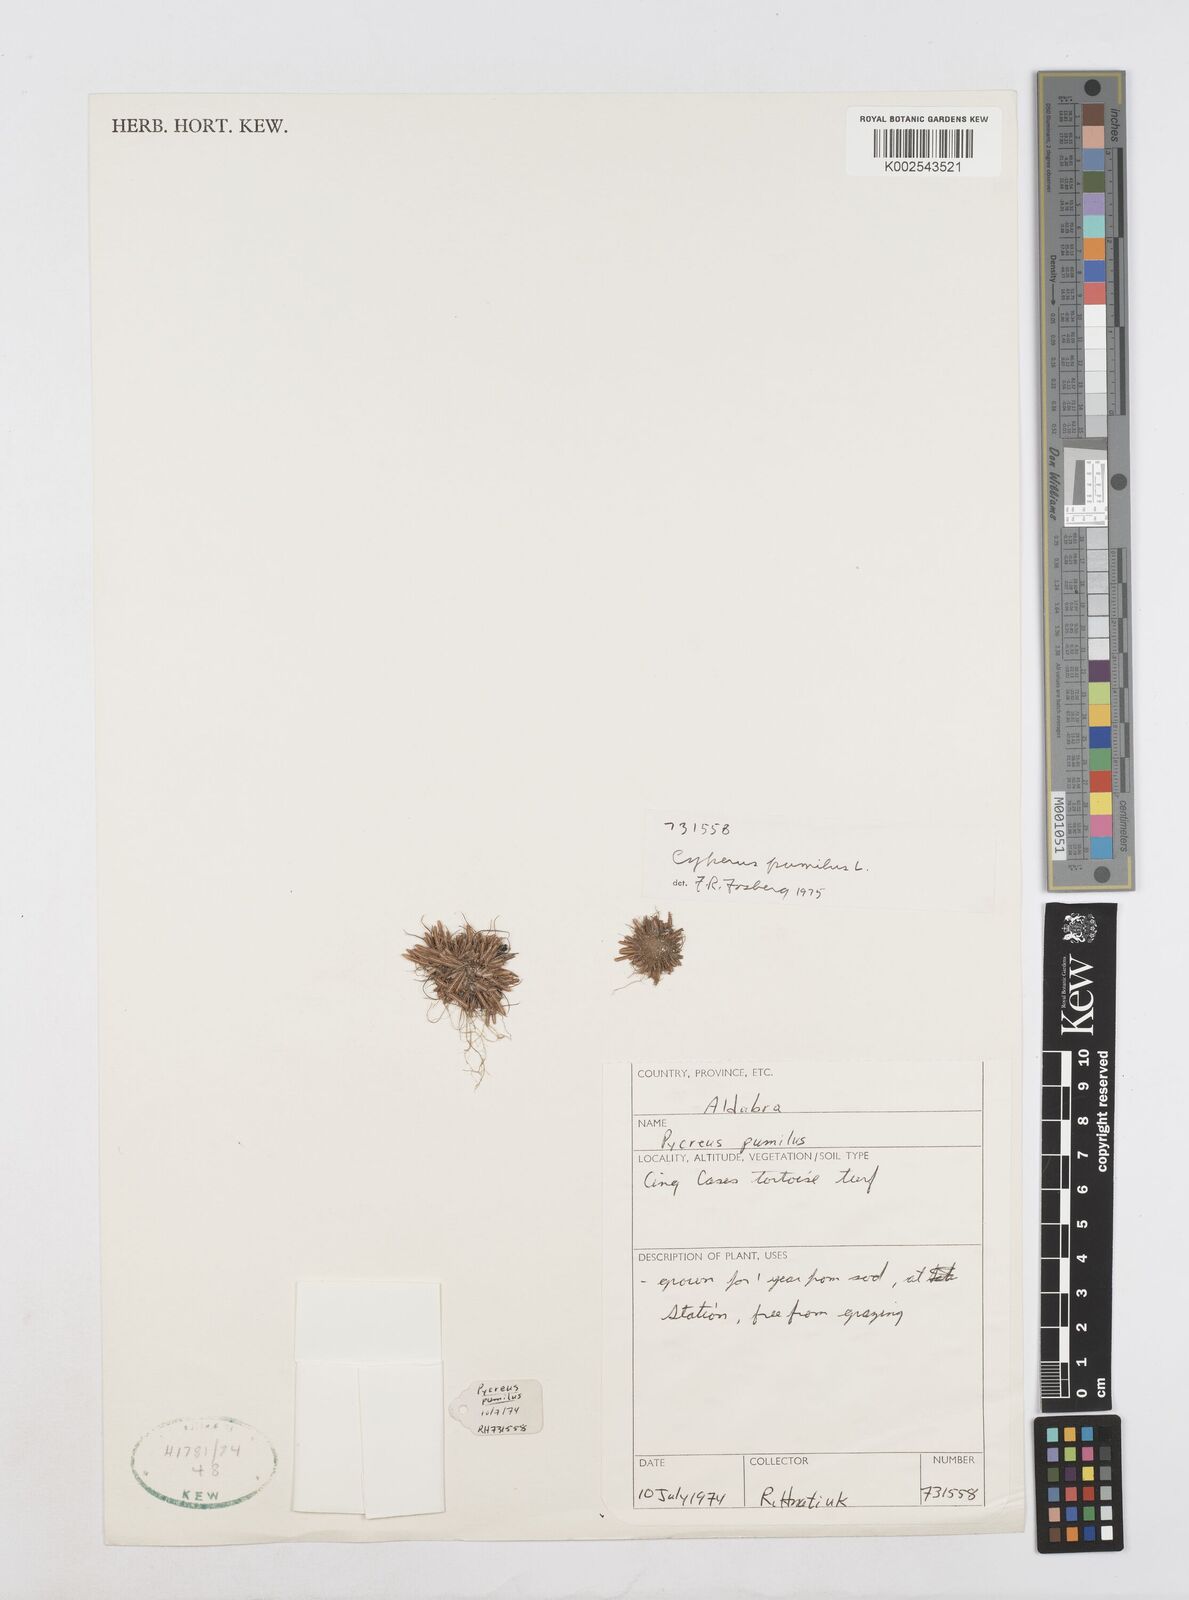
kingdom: Plantae
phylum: Tracheophyta
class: Liliopsida
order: Poales
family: Cyperaceae
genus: Cyperus
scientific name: Cyperus pumilus
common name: Low flatsedge
